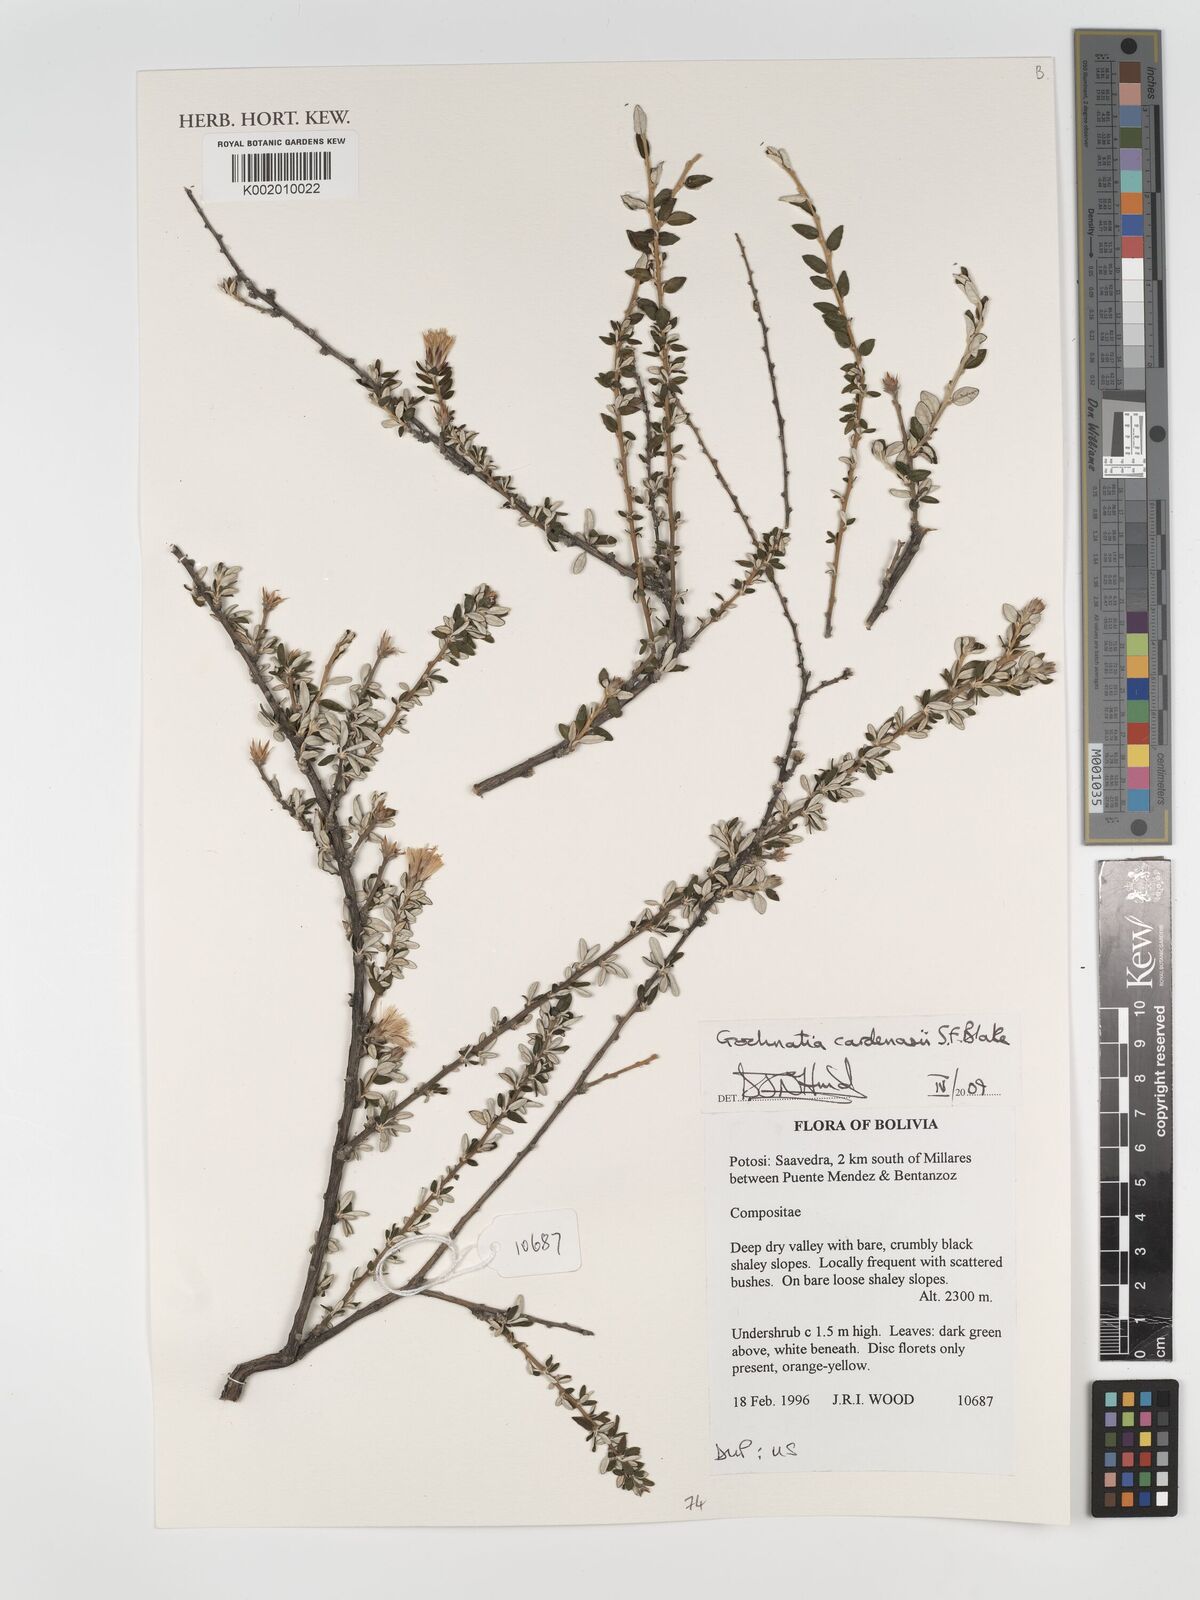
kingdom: Plantae
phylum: Tracheophyta
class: Magnoliopsida
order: Asterales
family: Asteraceae
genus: Gochnatia
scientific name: Gochnatia cardenasii
